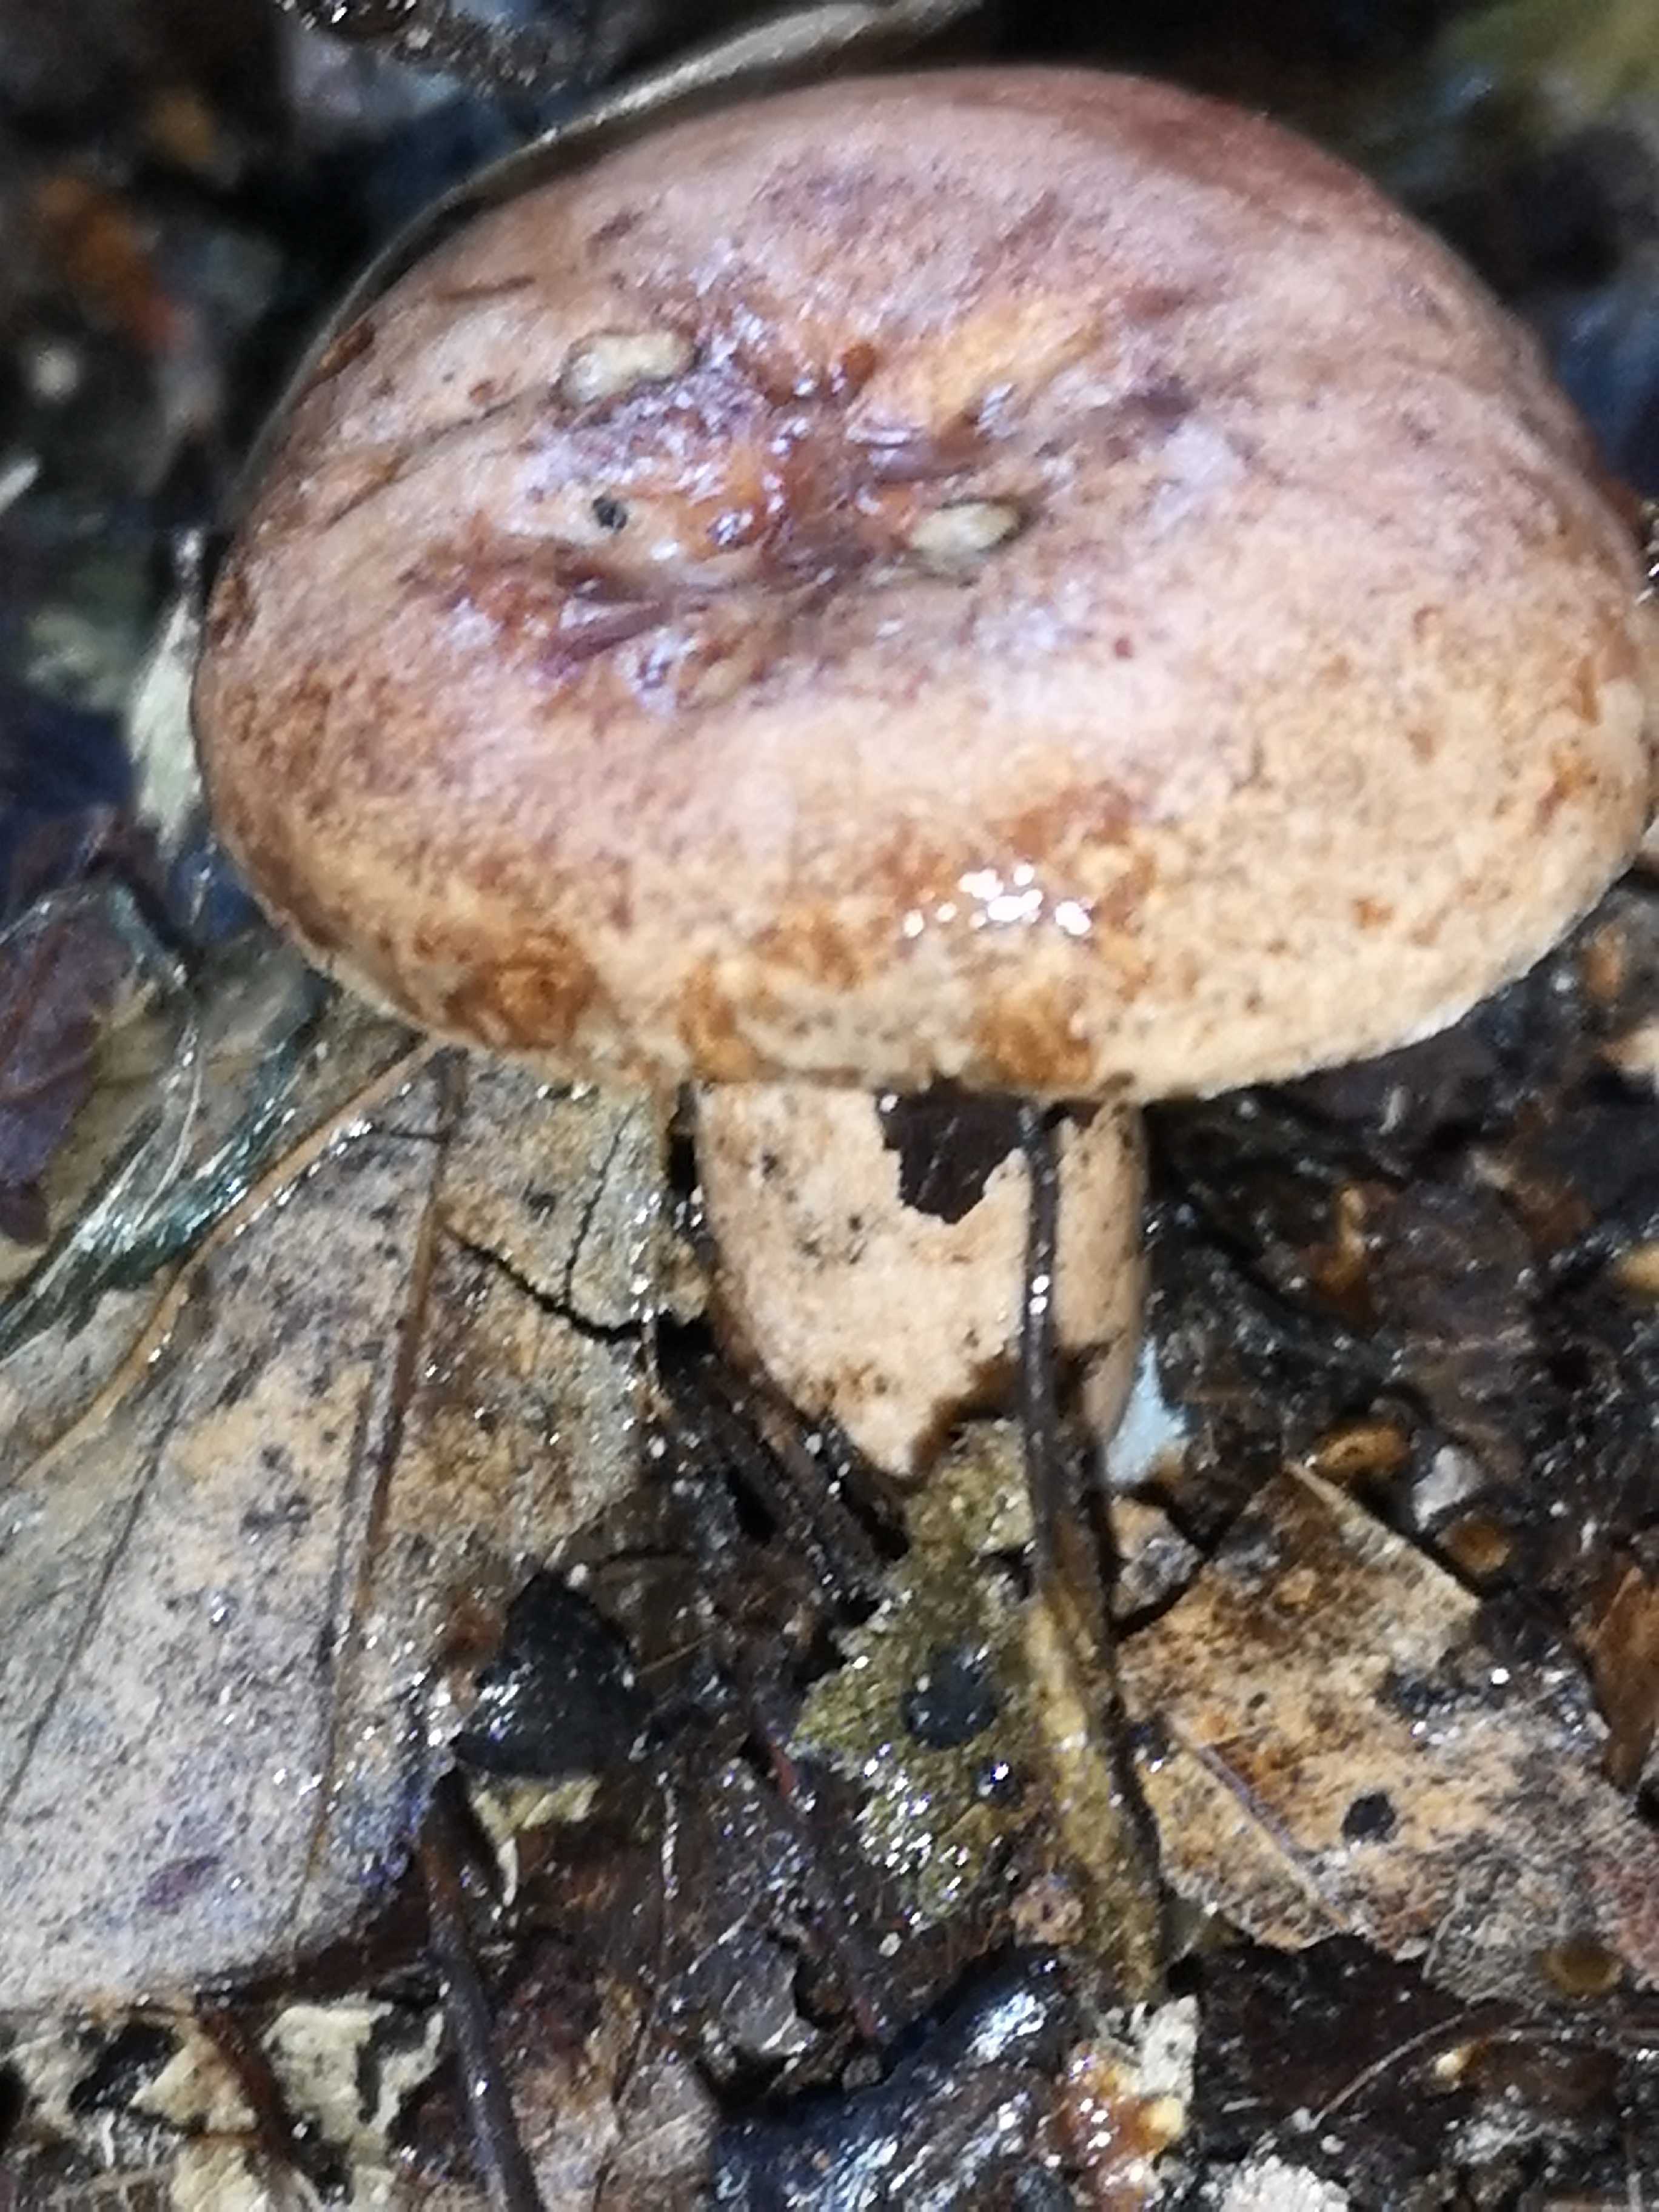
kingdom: Fungi
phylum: Basidiomycota
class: Agaricomycetes
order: Russulales
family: Russulaceae
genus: Lactarius
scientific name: Lactarius quietus
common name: ege-mælkehat
